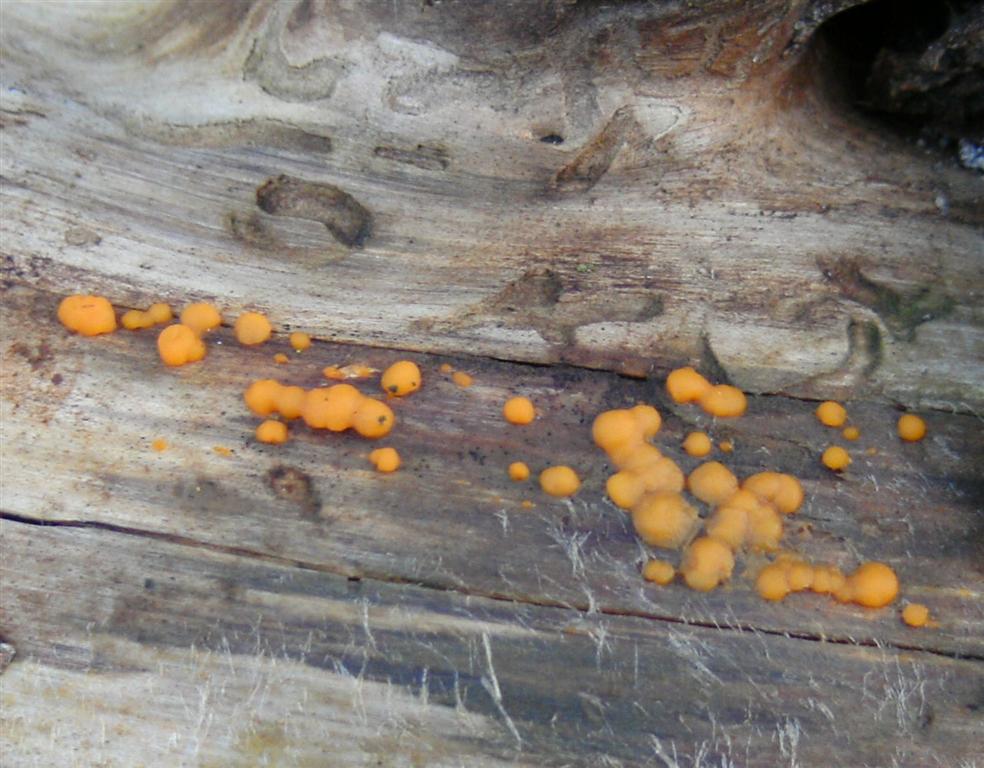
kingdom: Fungi
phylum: Basidiomycota
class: Dacrymycetes
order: Dacrymycetales
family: Dacrymycetaceae
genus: Dacrymyces
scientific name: Dacrymyces stillatus
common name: almindelig tåresvamp
